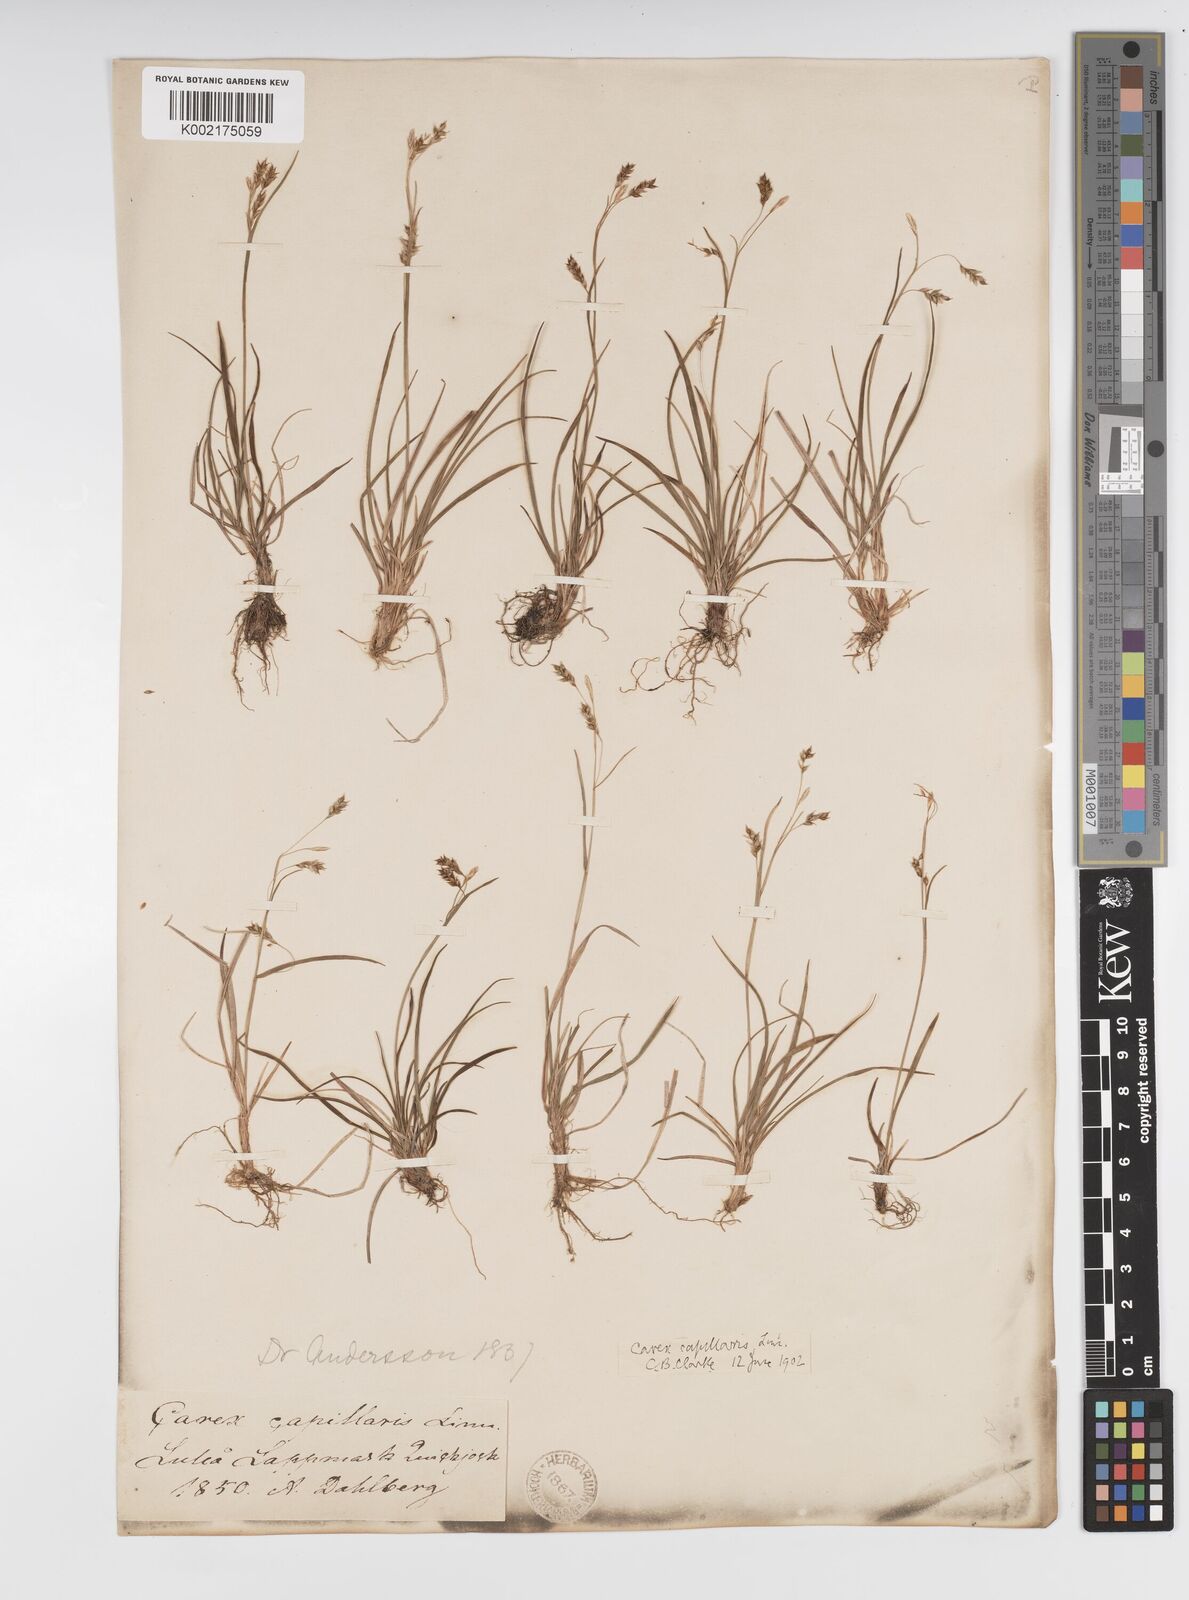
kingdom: Plantae
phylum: Tracheophyta
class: Liliopsida
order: Poales
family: Cyperaceae
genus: Carex
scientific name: Carex capillaris
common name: Hair sedge
